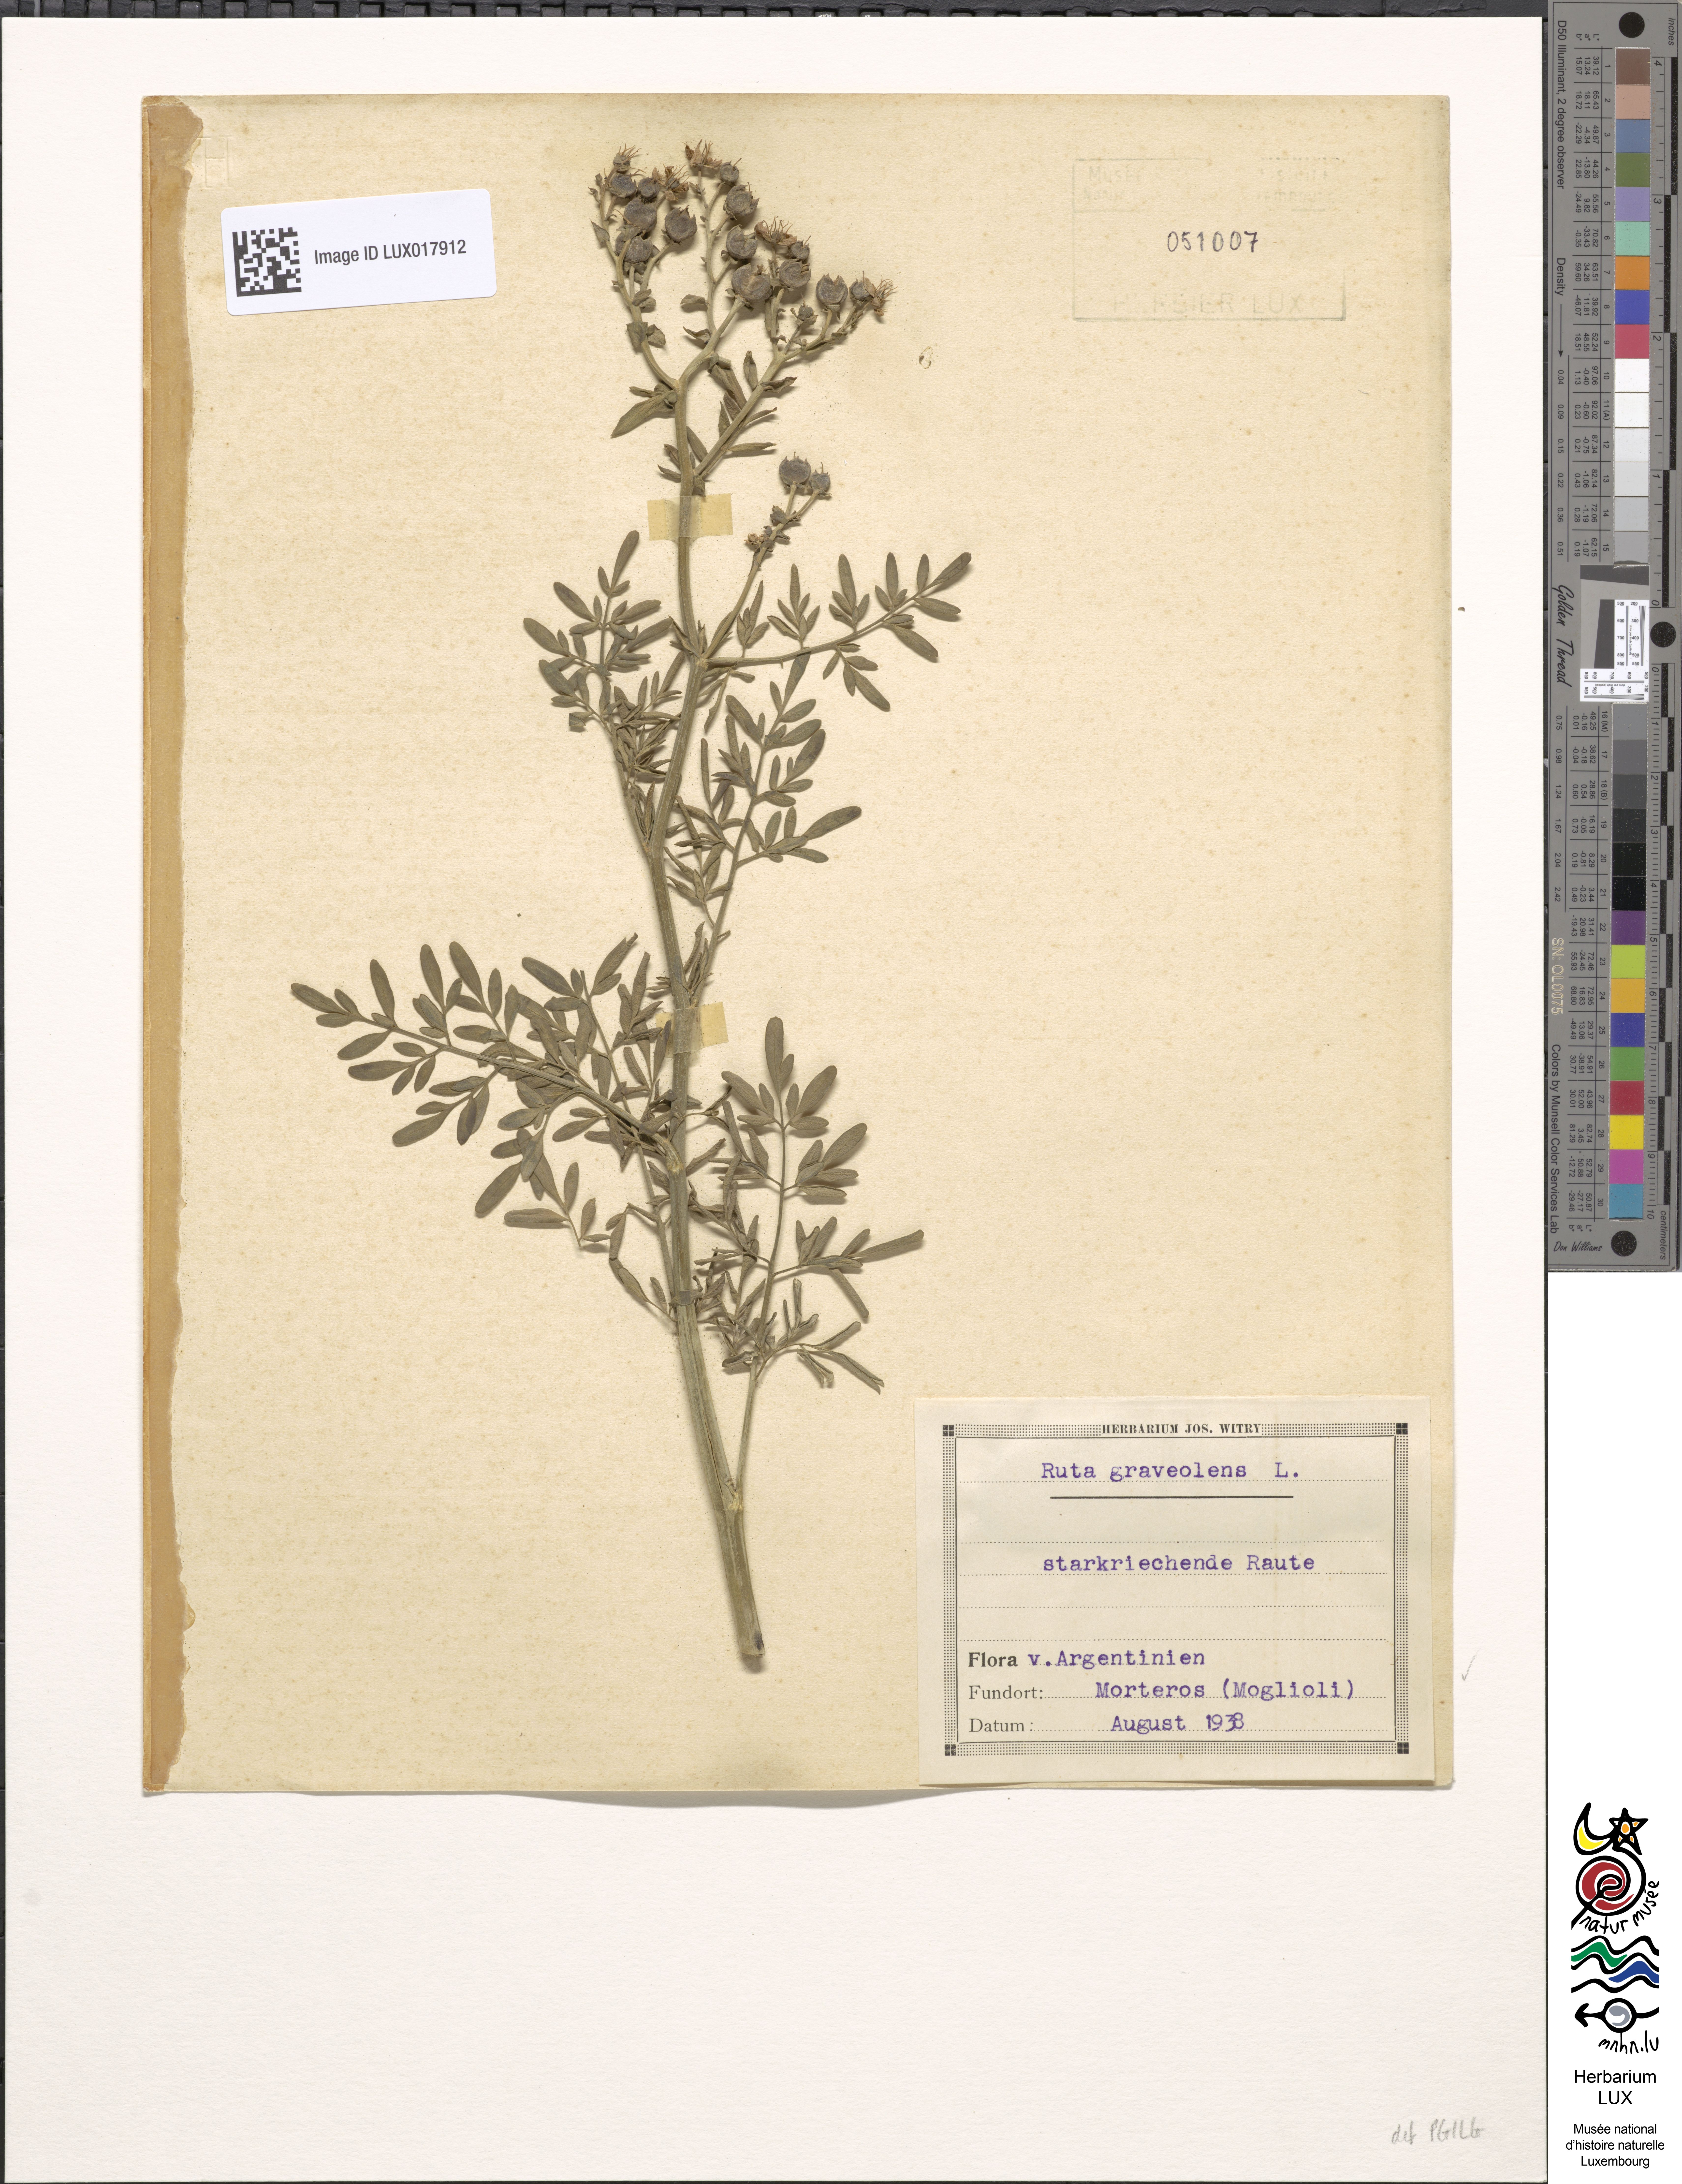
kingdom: Plantae
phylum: Tracheophyta
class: Magnoliopsida
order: Sapindales
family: Rutaceae
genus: Ruta
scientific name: Ruta graveolens
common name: Common rue
